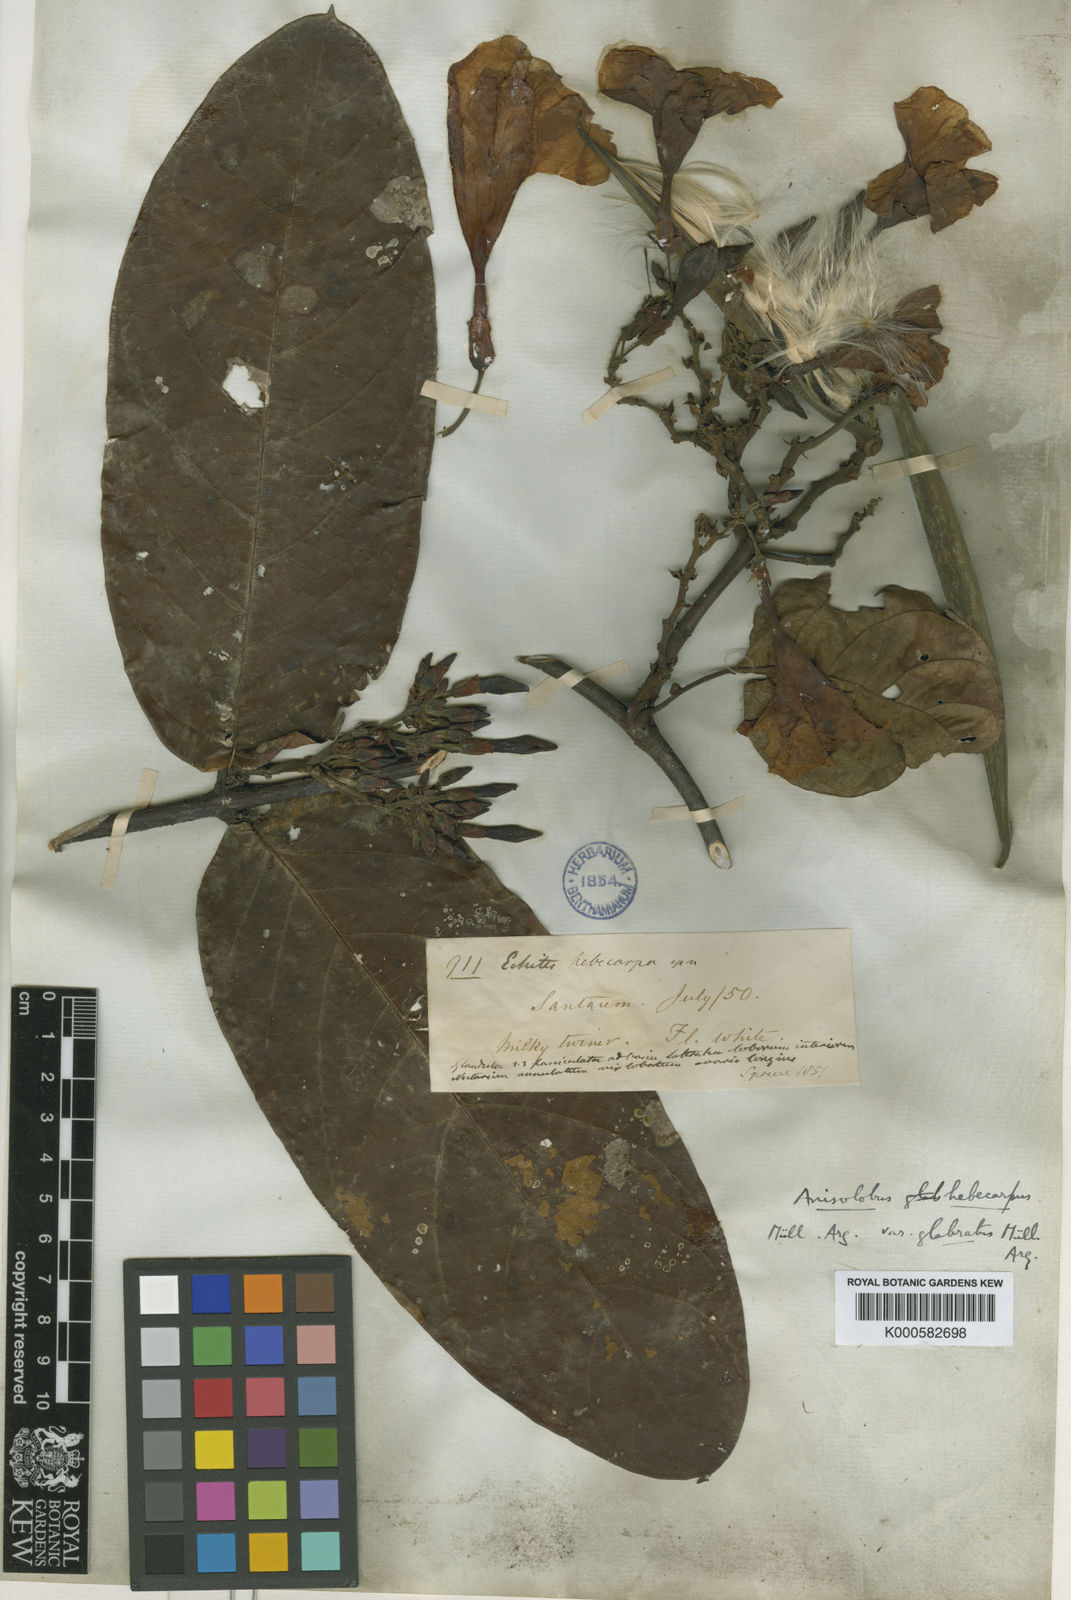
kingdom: Plantae
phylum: Tracheophyta
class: Magnoliopsida
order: Gentianales
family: Apocynaceae
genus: Odontadenia
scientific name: Odontadenia lutea
